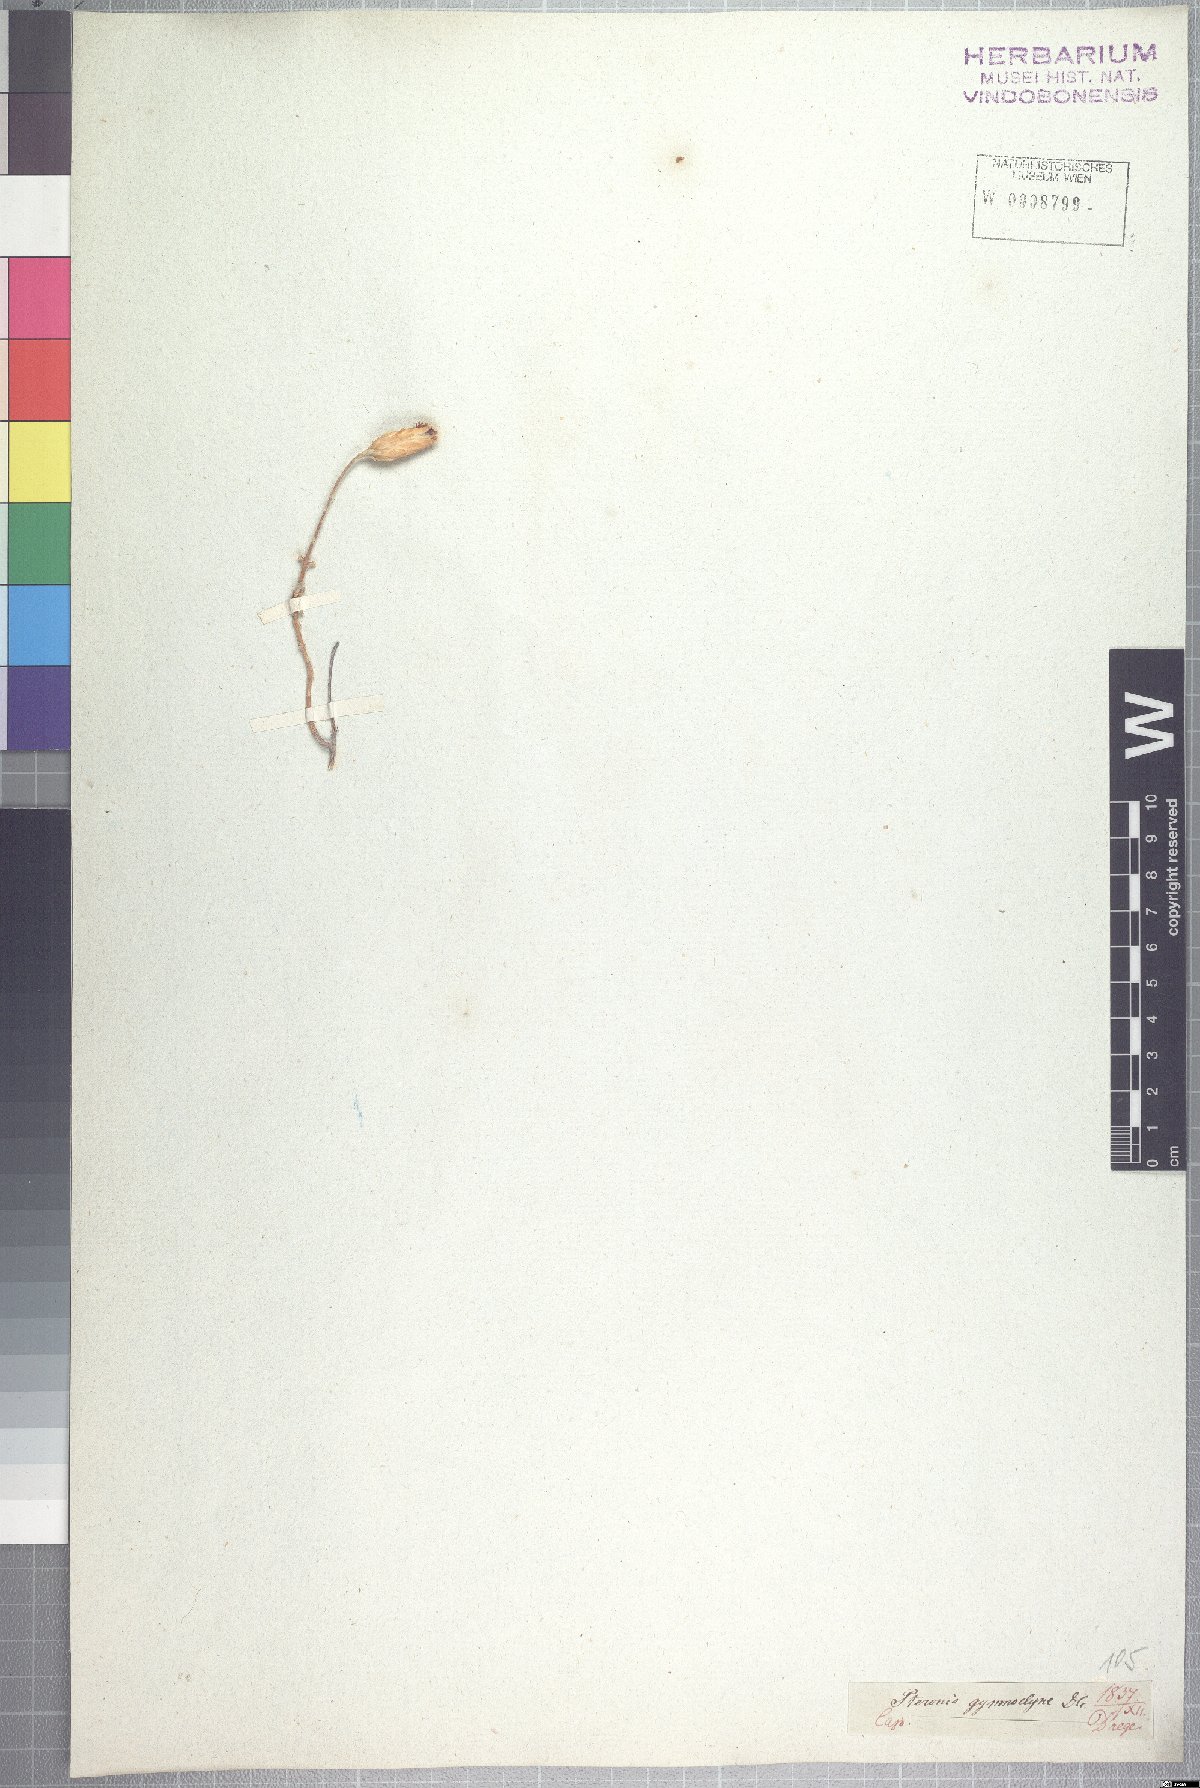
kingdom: Plantae
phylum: Tracheophyta
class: Magnoliopsida
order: Asterales
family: Asteraceae
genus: Pteronia
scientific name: Pteronia gymnocline
